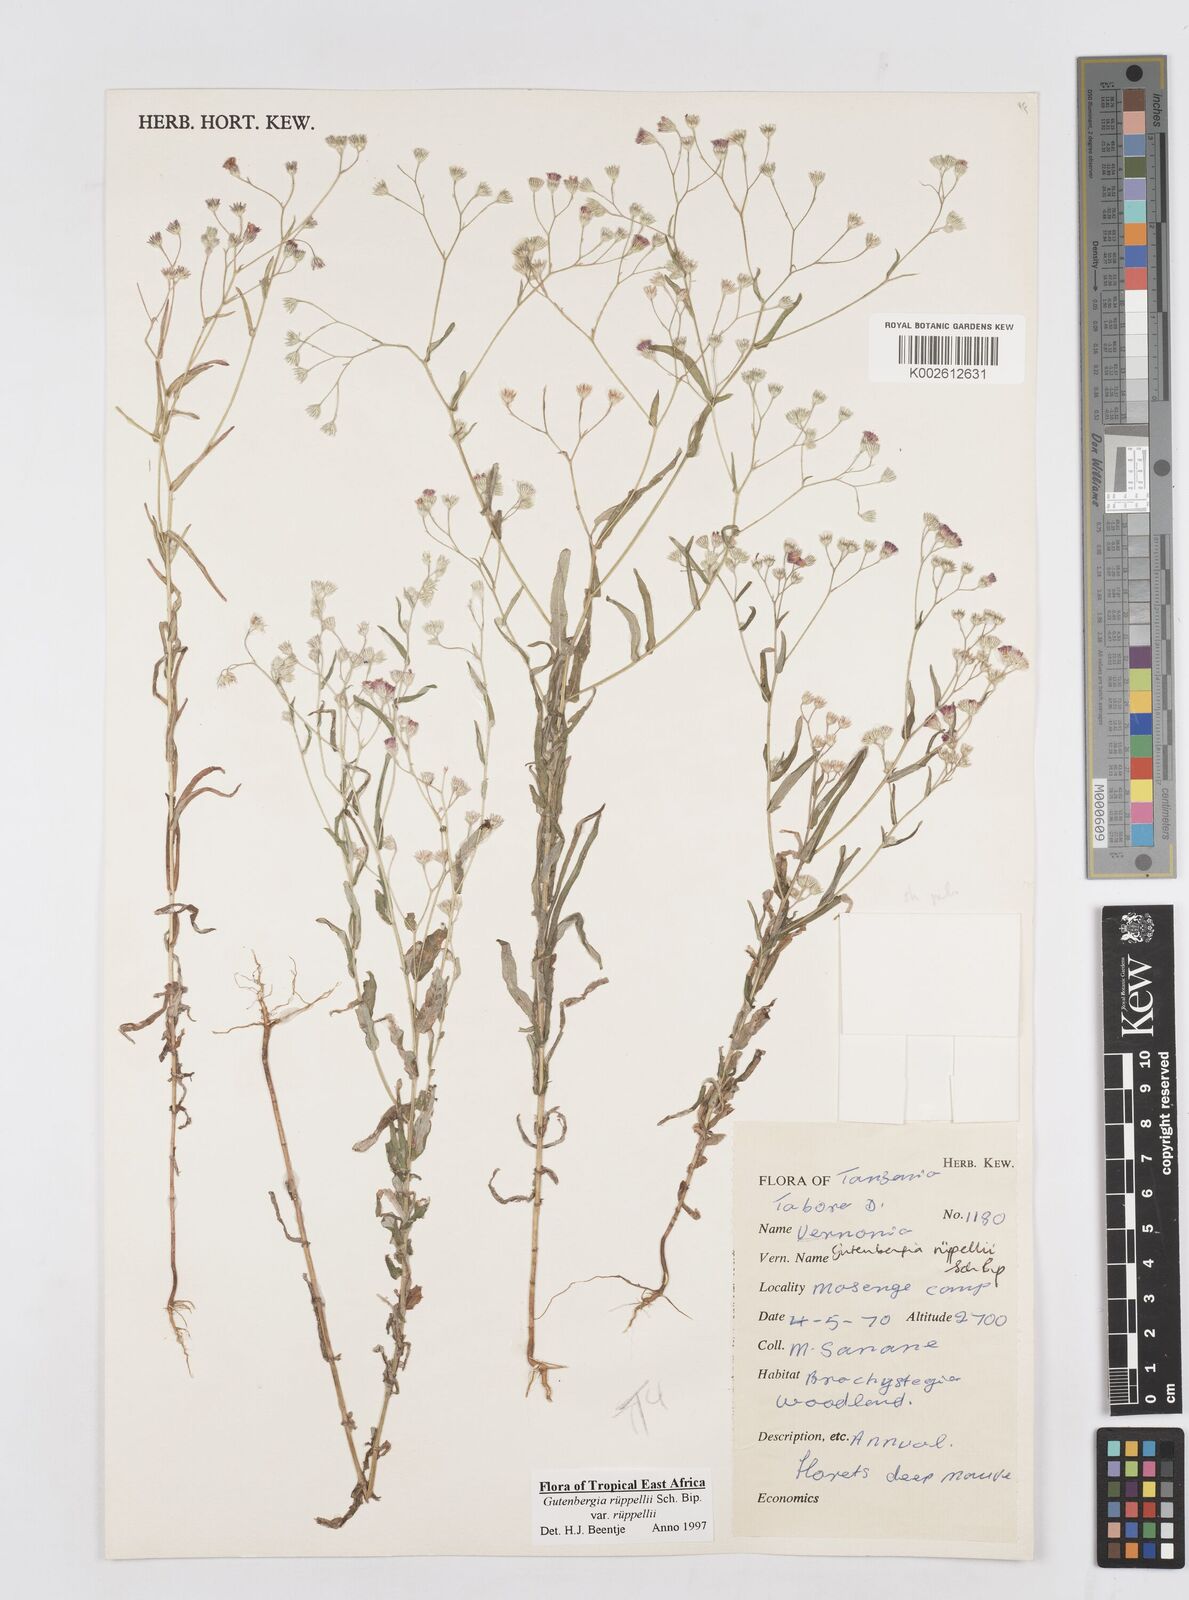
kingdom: Plantae
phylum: Tracheophyta
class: Magnoliopsida
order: Asterales
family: Asteraceae
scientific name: Asteraceae
